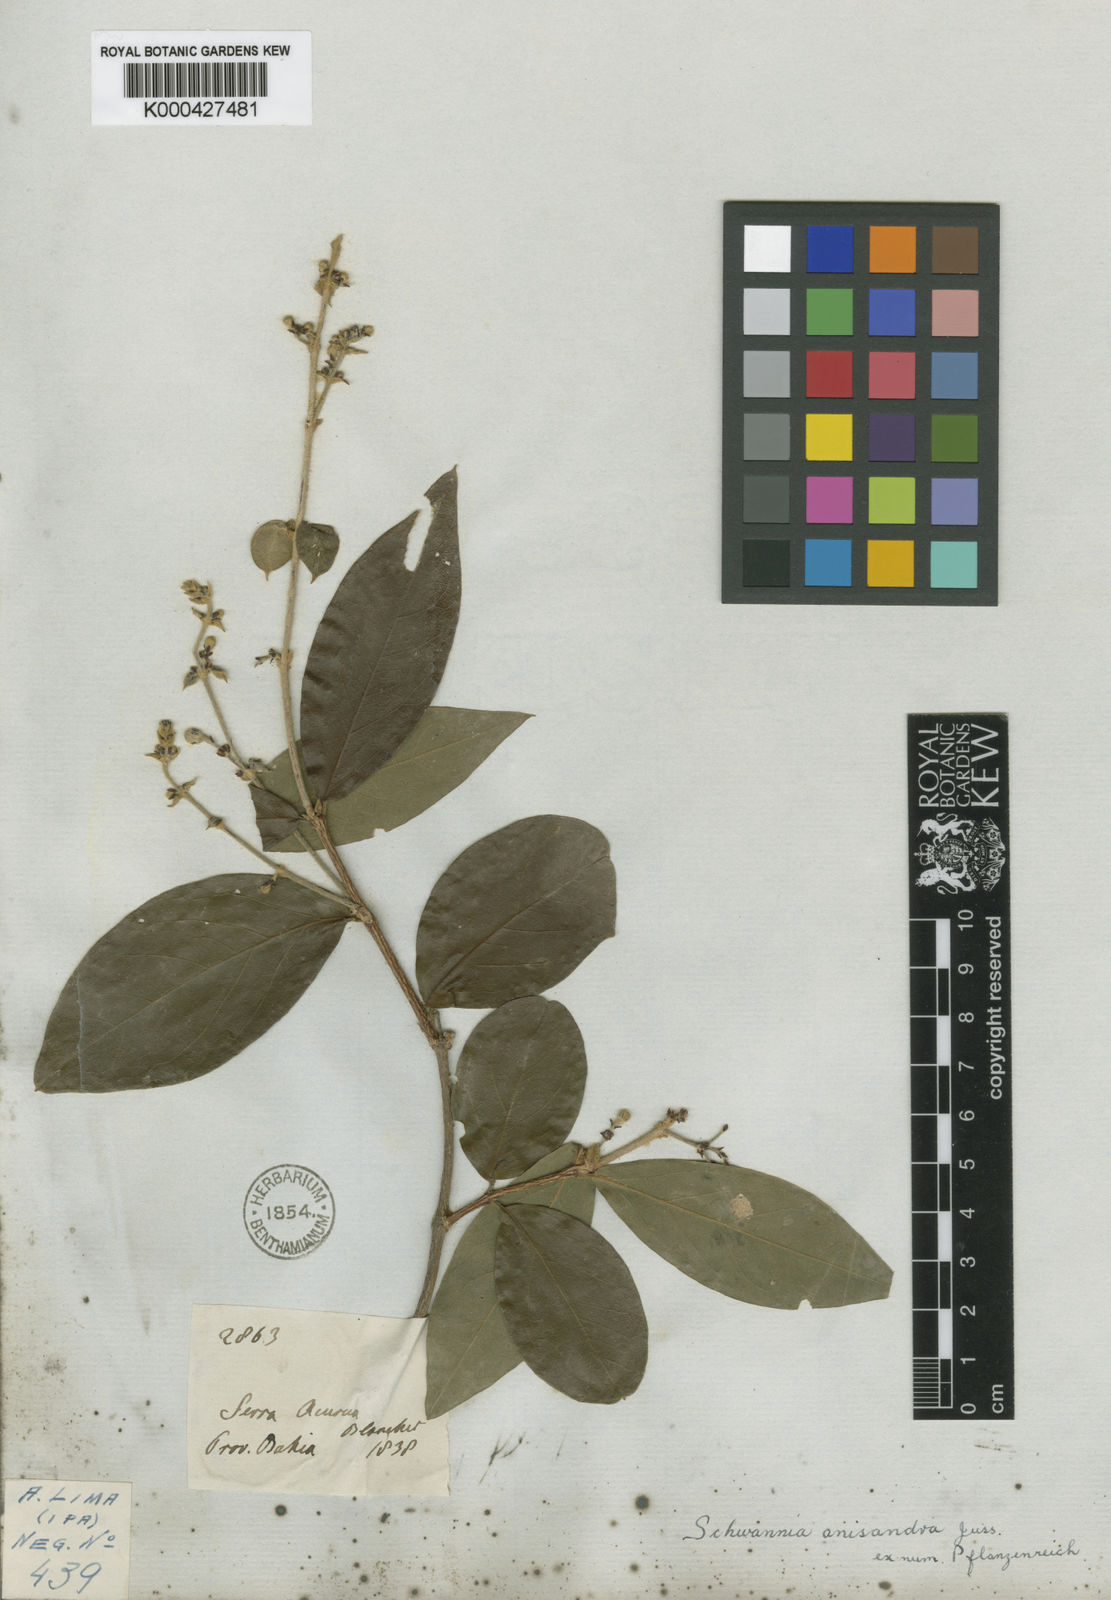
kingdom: Plantae
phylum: Tracheophyta
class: Magnoliopsida
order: Malpighiales
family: Malpighiaceae
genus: Janusia
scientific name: Janusia anisandra
